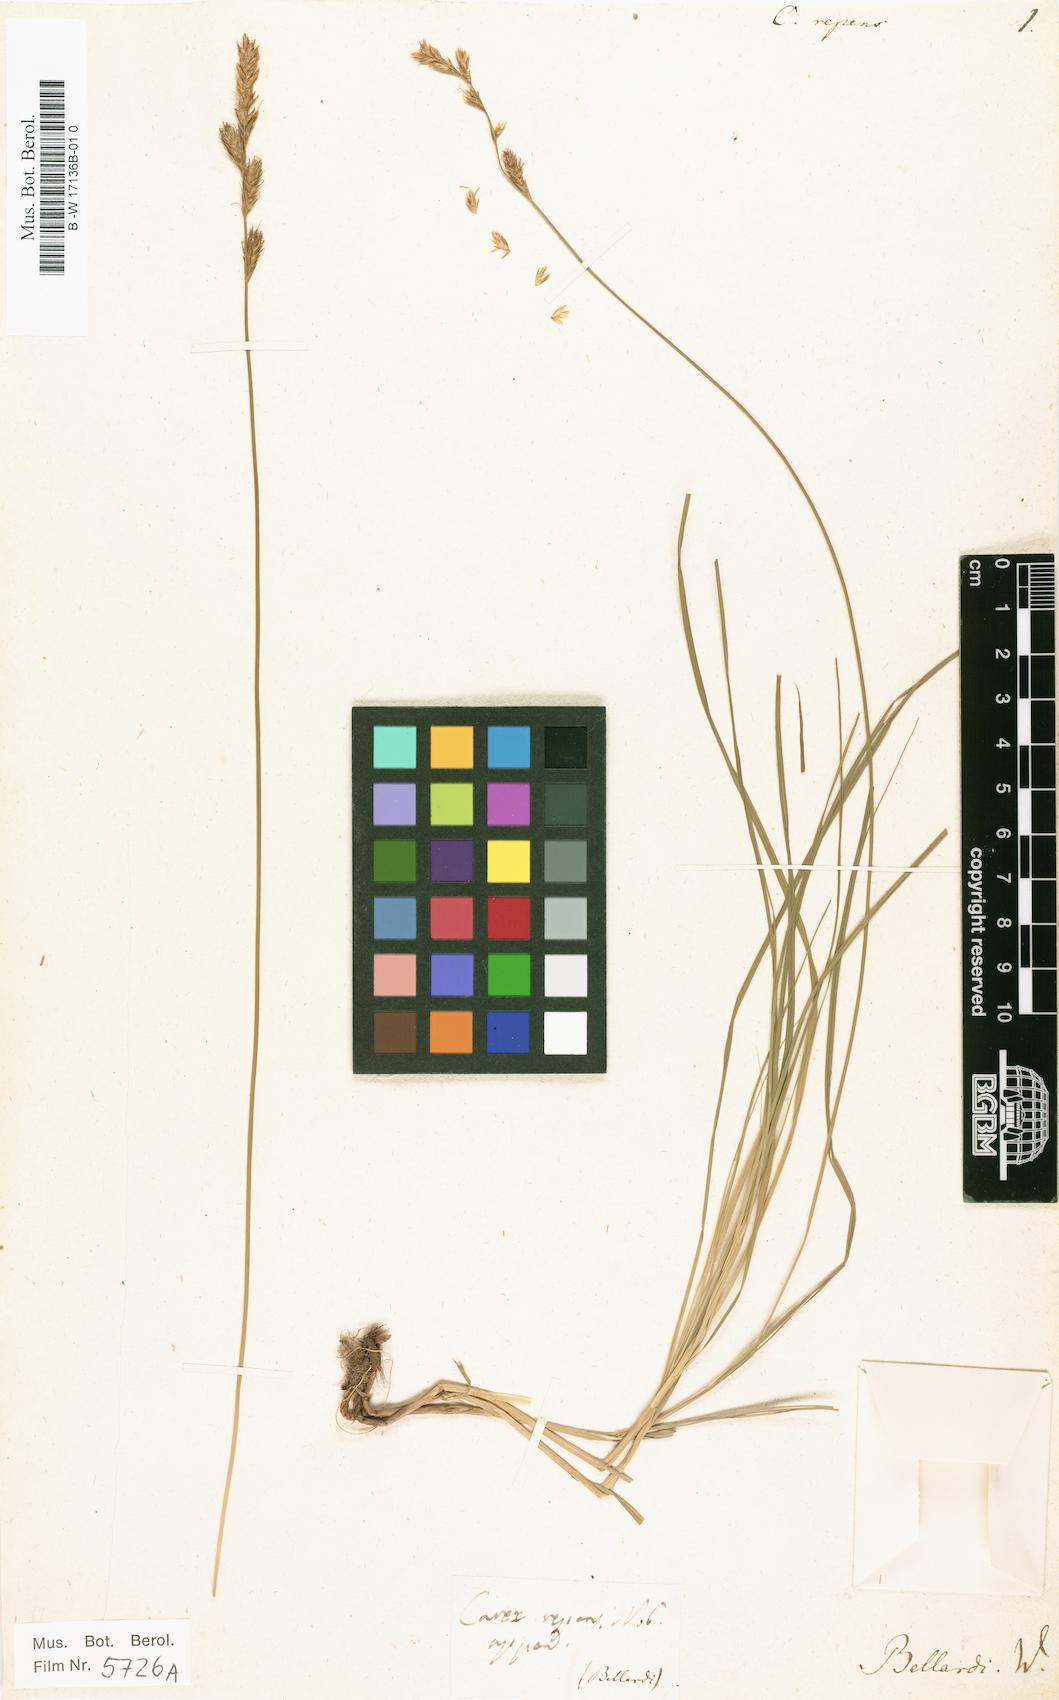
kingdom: Plantae
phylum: Tracheophyta
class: Liliopsida
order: Poales
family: Cyperaceae
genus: Carex
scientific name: Carex repens
